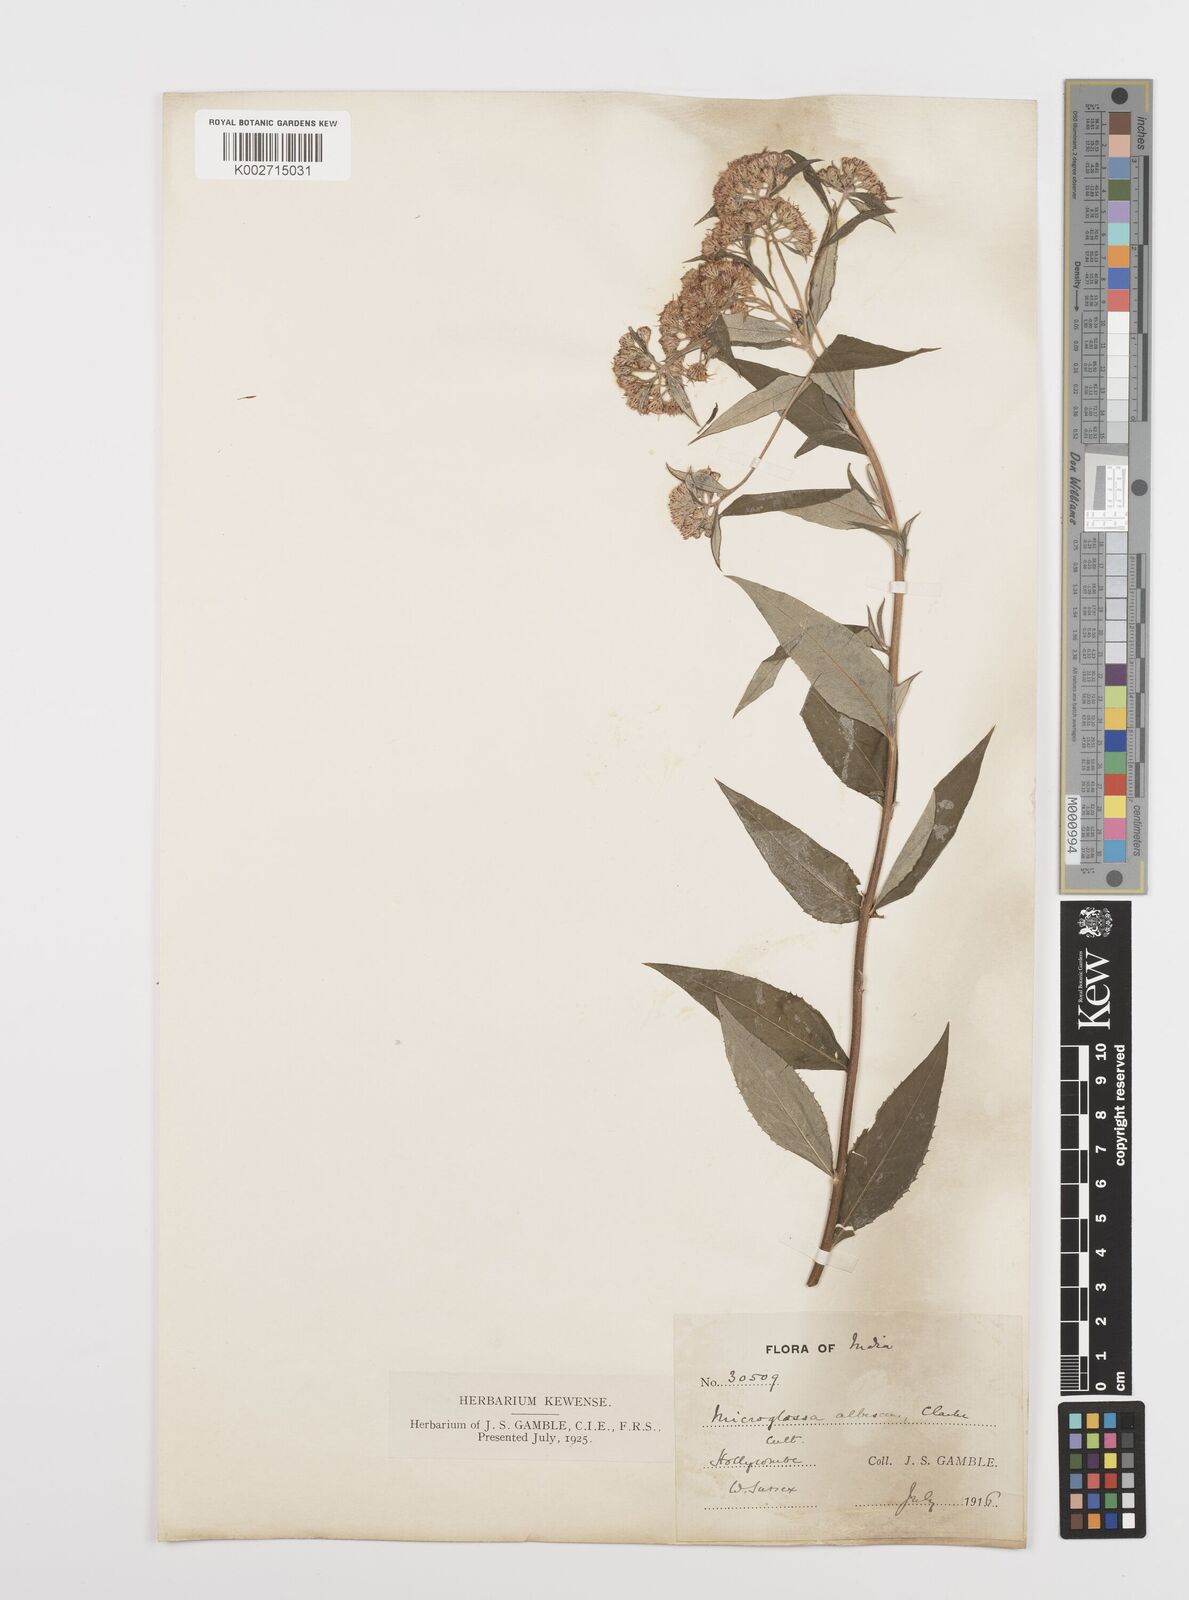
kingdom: Plantae
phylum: Tracheophyta
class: Magnoliopsida
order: Asterales
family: Asteraceae
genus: Sinosidus
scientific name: Sinosidus albescens
